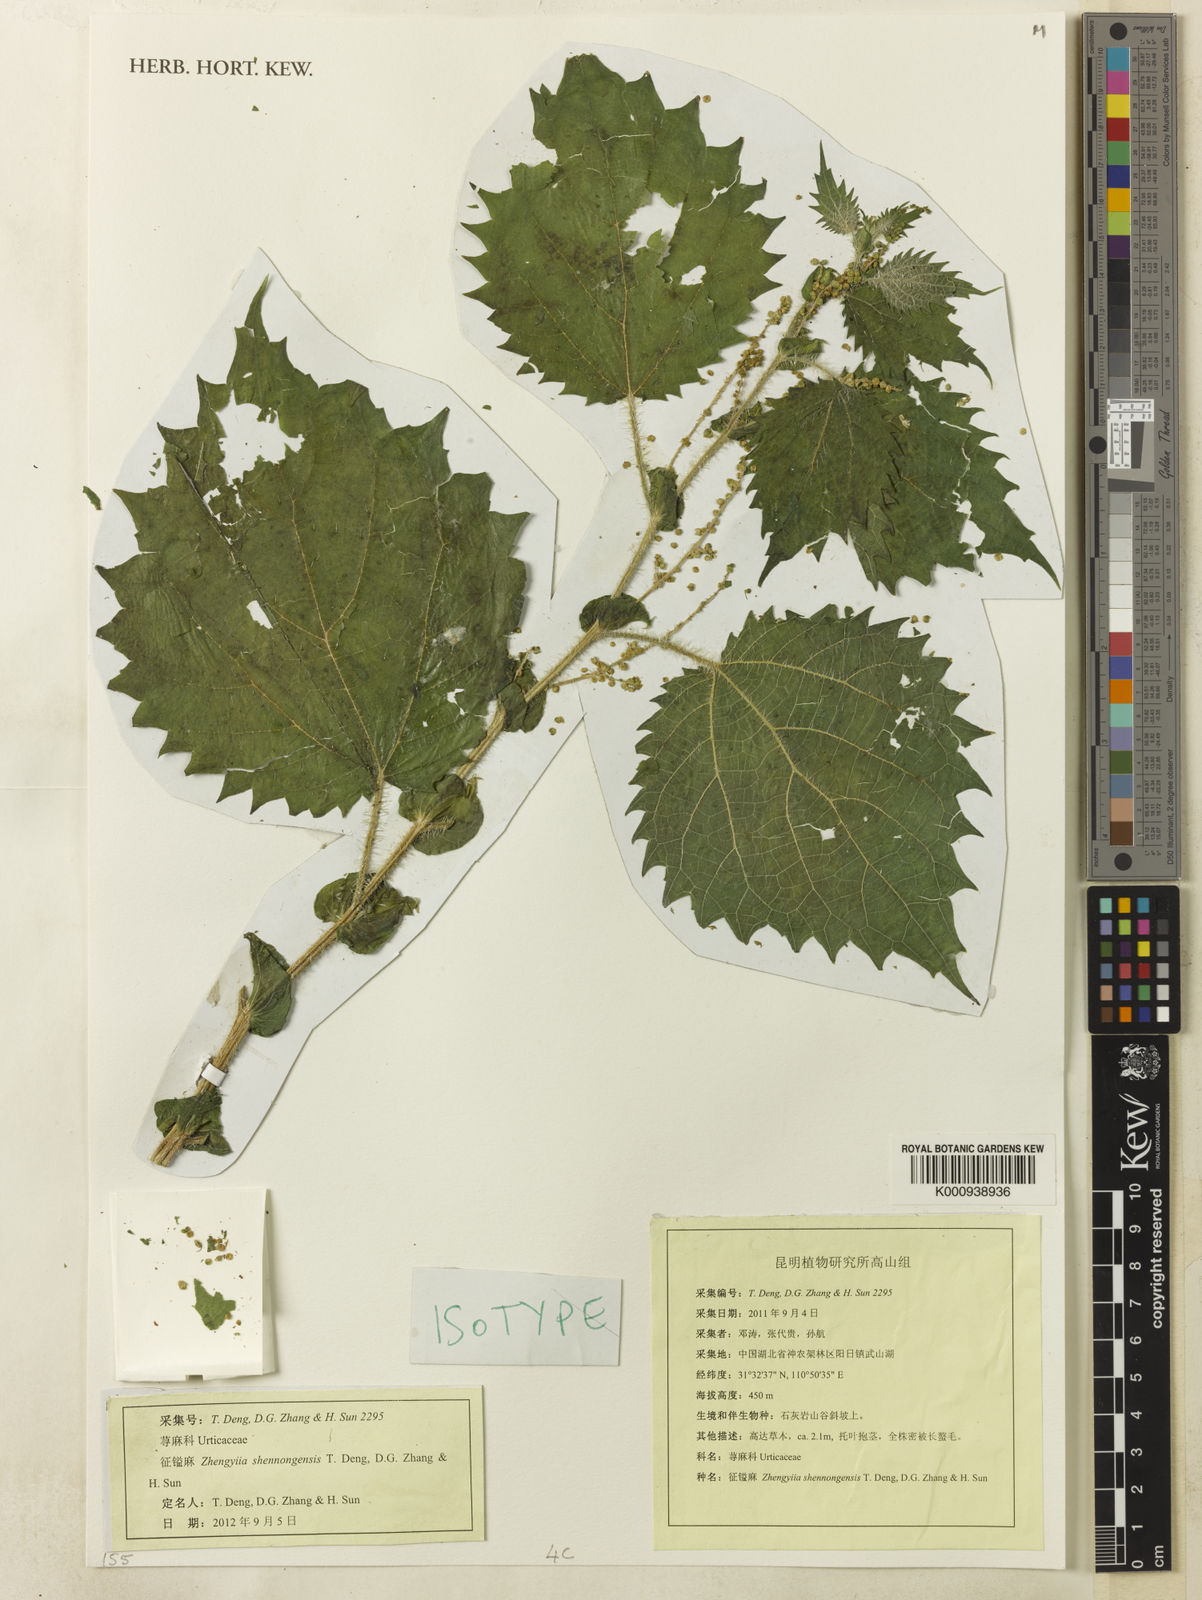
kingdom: Plantae
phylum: Tracheophyta
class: Magnoliopsida
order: Rosales
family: Urticaceae
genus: Zhengyia
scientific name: Zhengyia shennongensis
